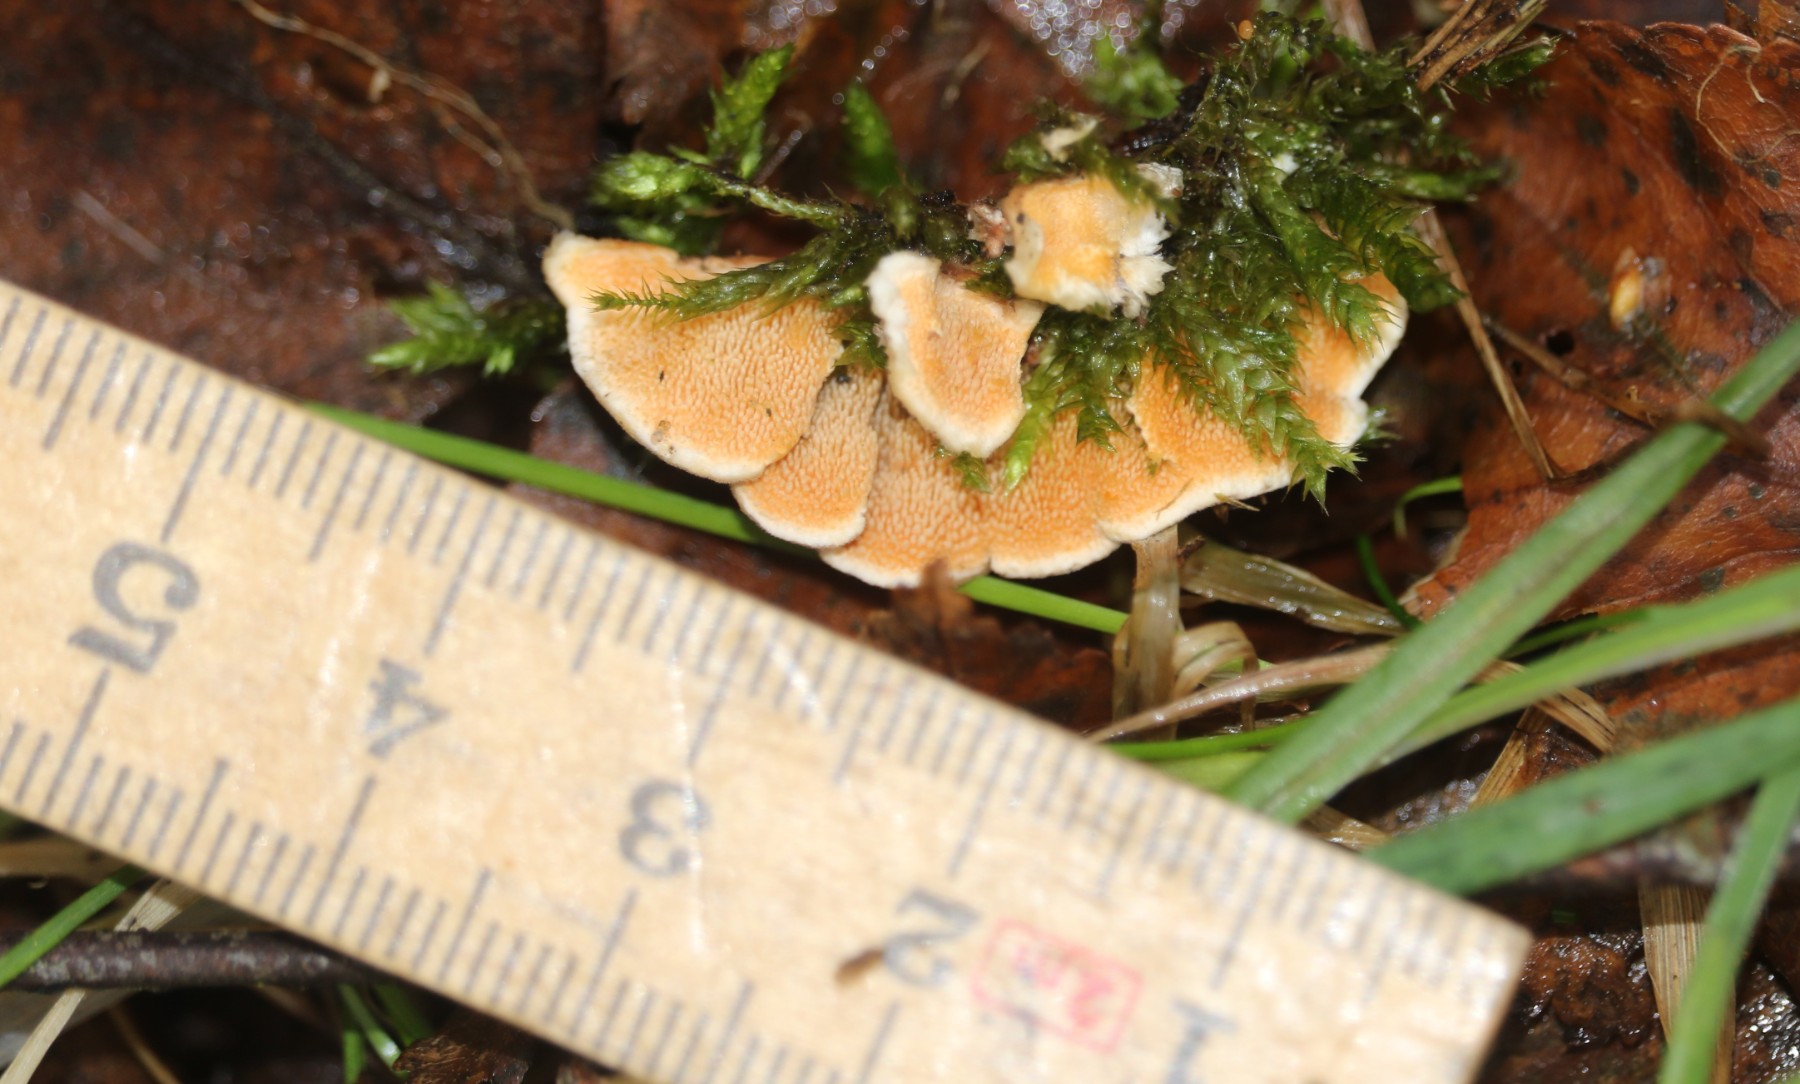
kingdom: Fungi
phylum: Basidiomycota
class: Agaricomycetes
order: Polyporales
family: Steccherinaceae
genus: Steccherinum
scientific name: Steccherinum ochraceum
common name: almindelig skønpig
